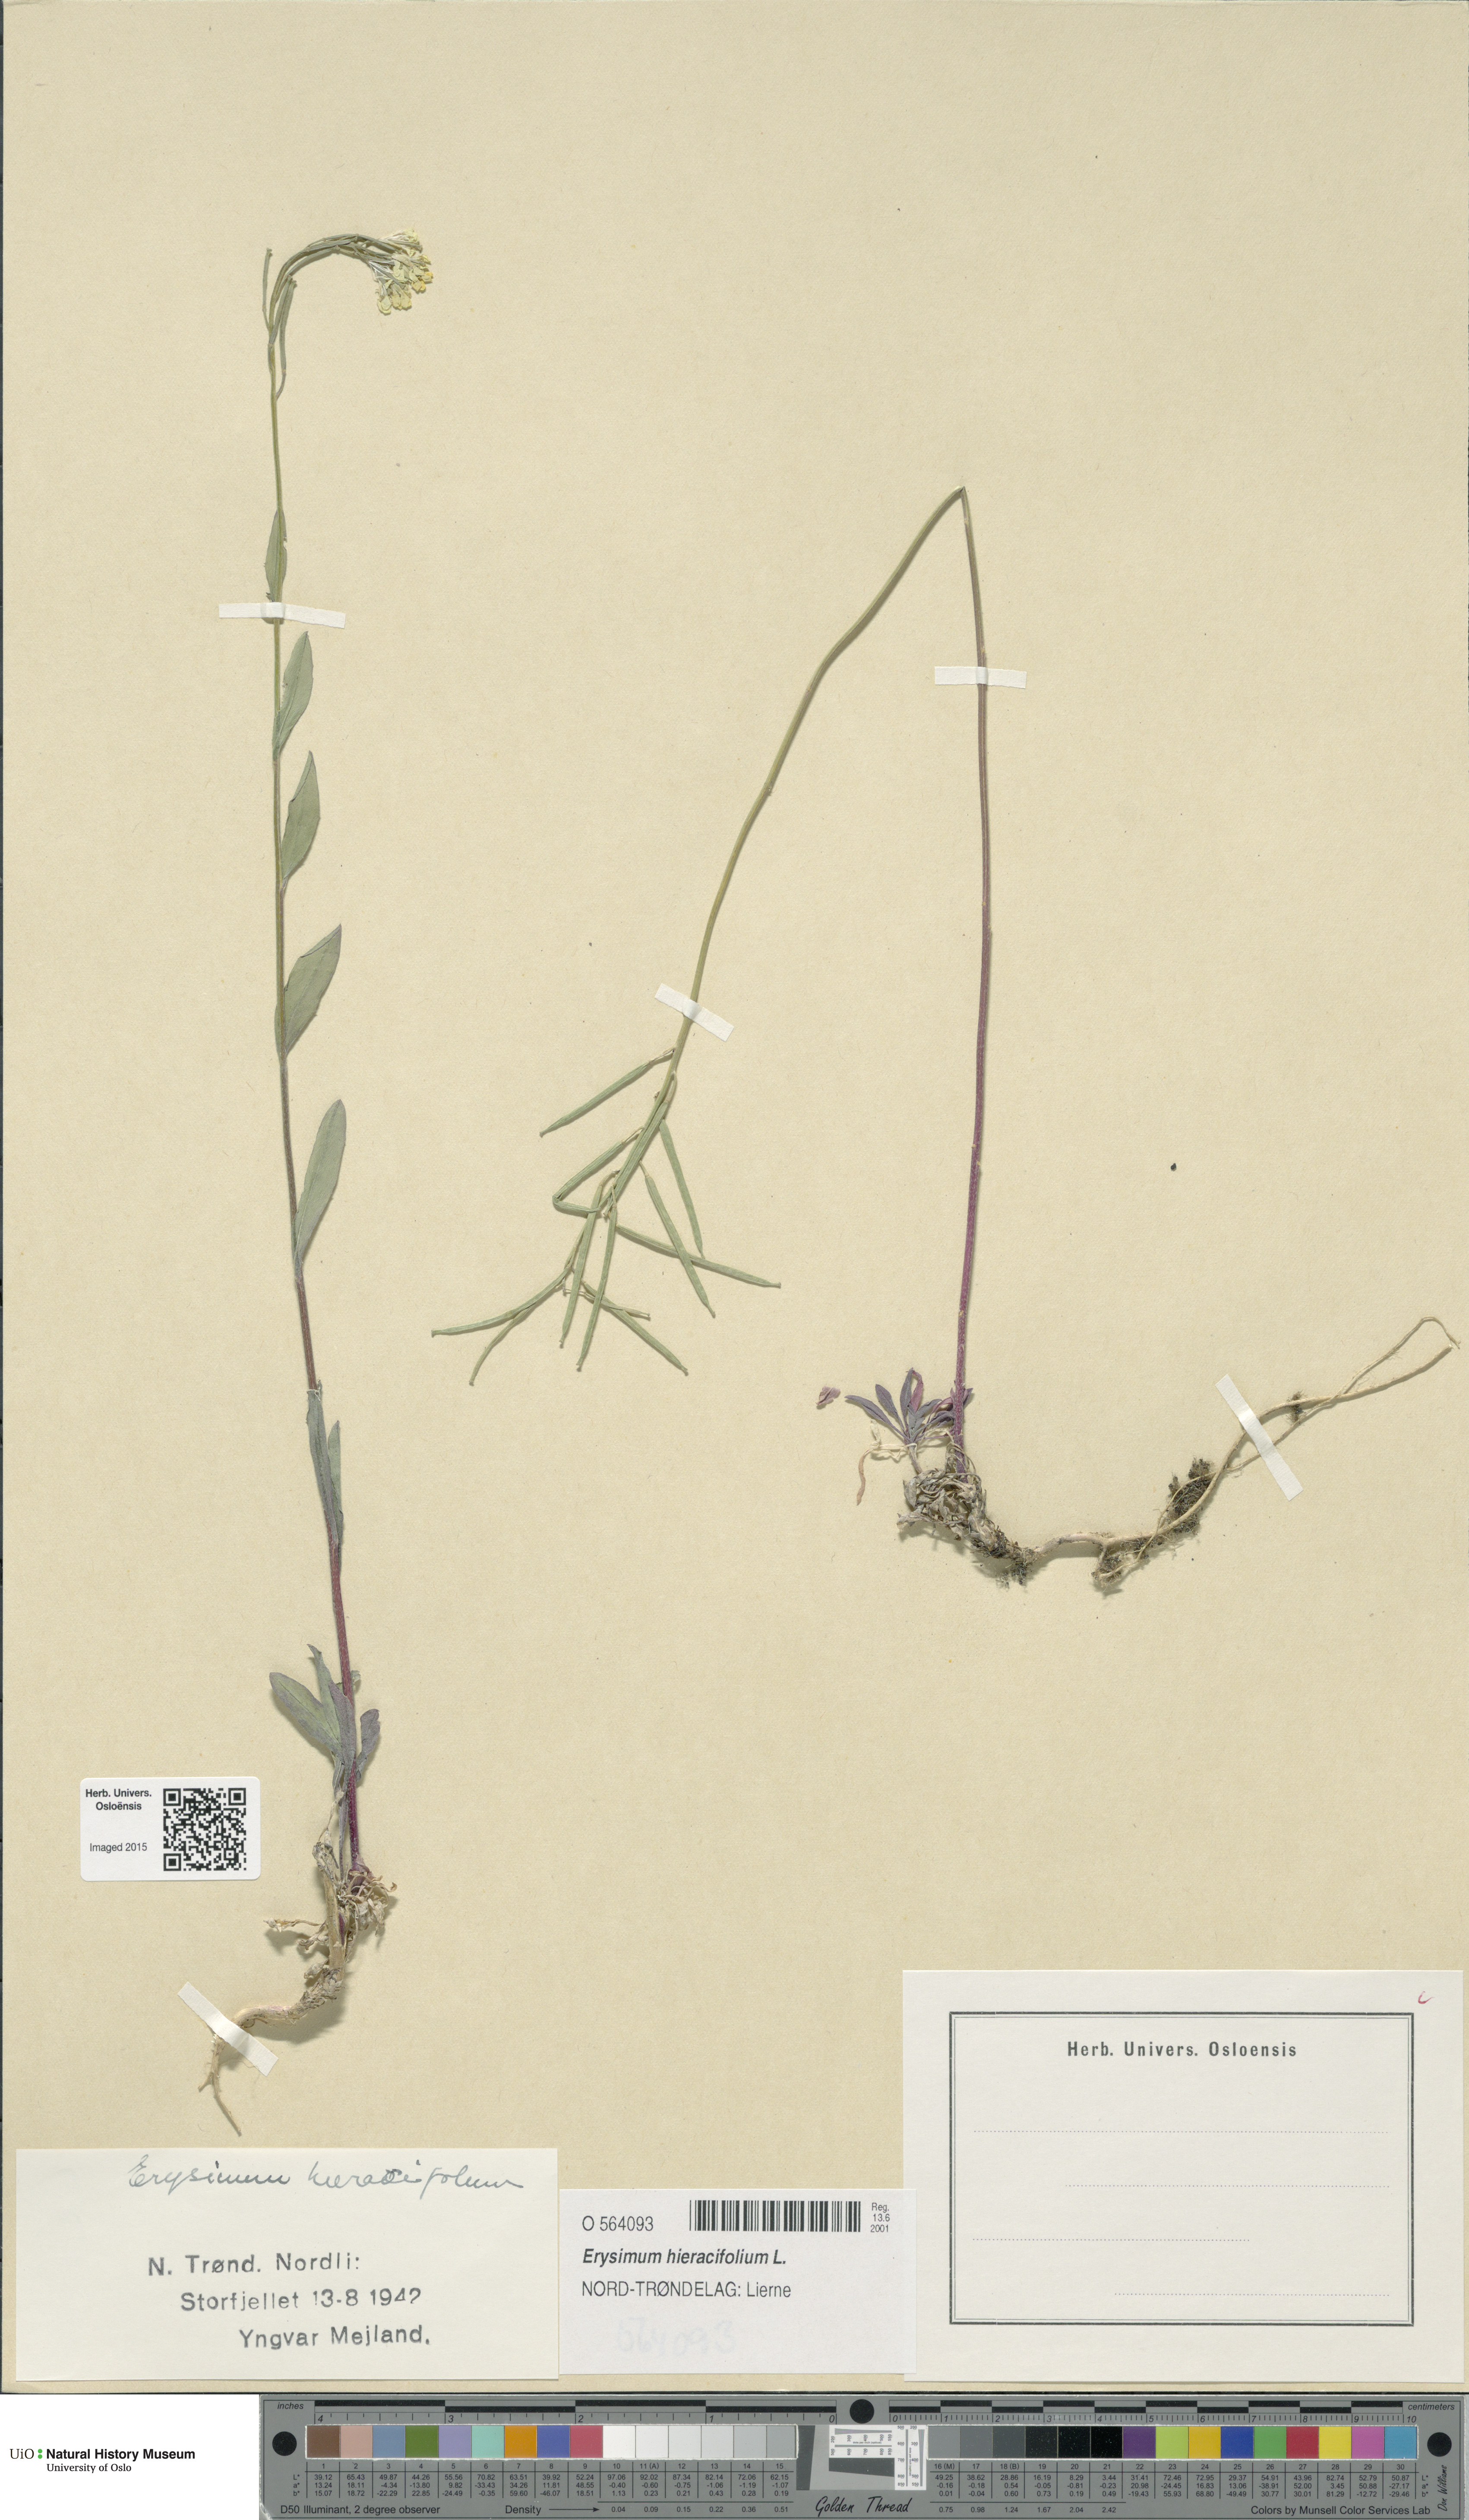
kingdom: Plantae
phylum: Tracheophyta
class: Magnoliopsida
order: Brassicales
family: Brassicaceae
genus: Erysimum
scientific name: Erysimum hieraciifolium
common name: European wallflower
